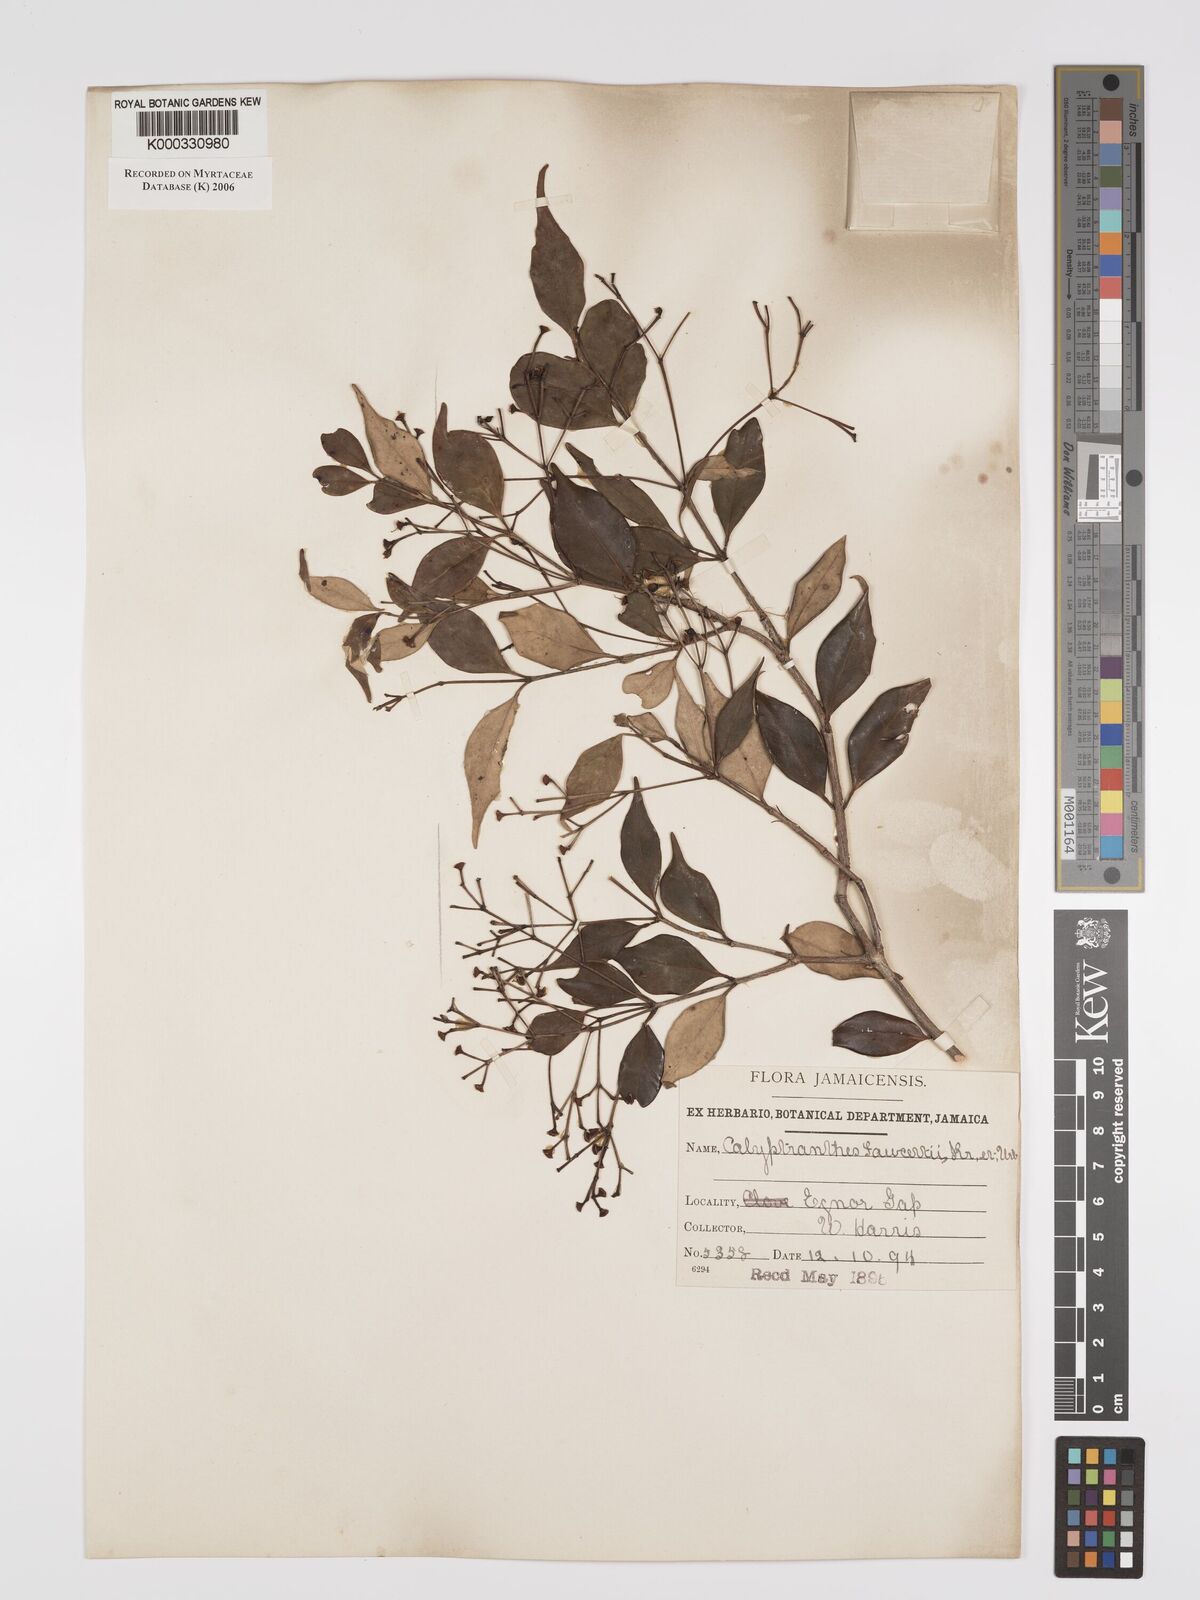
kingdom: Plantae
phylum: Tracheophyta
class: Magnoliopsida
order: Myrtales
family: Myrtaceae
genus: Myrcia
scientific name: Myrcia rigida
